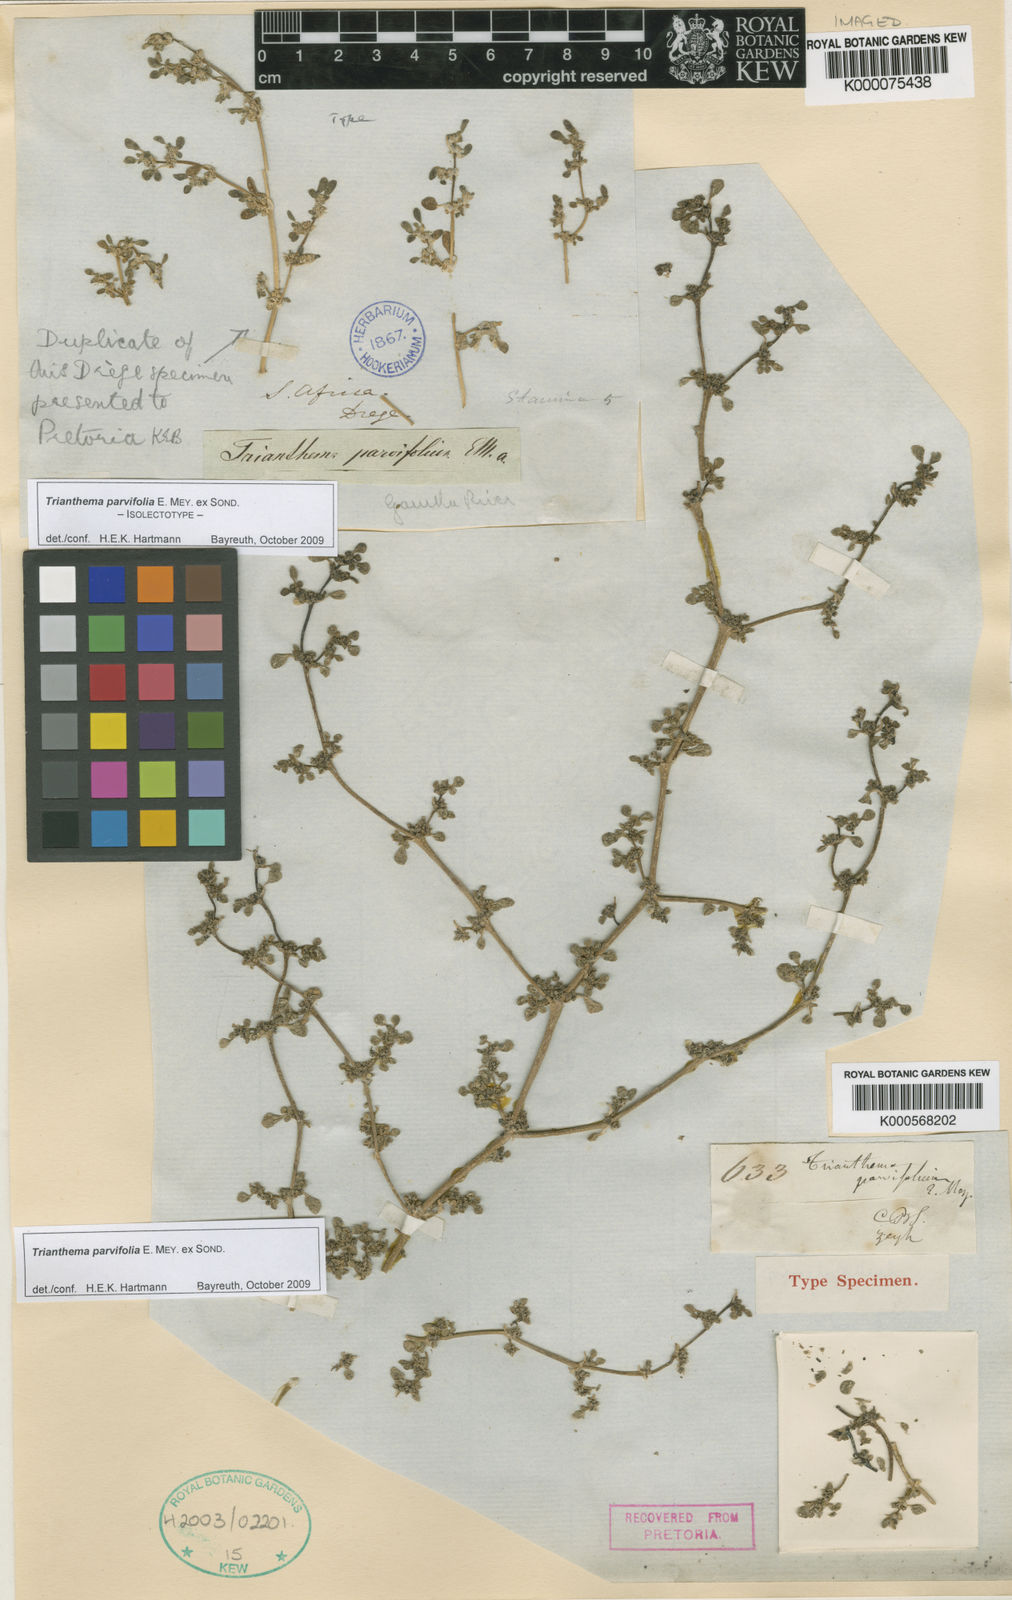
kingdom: Plantae
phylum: Tracheophyta
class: Magnoliopsida
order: Caryophyllales
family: Aizoaceae
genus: Trianthema
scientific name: Trianthema parvifolium
